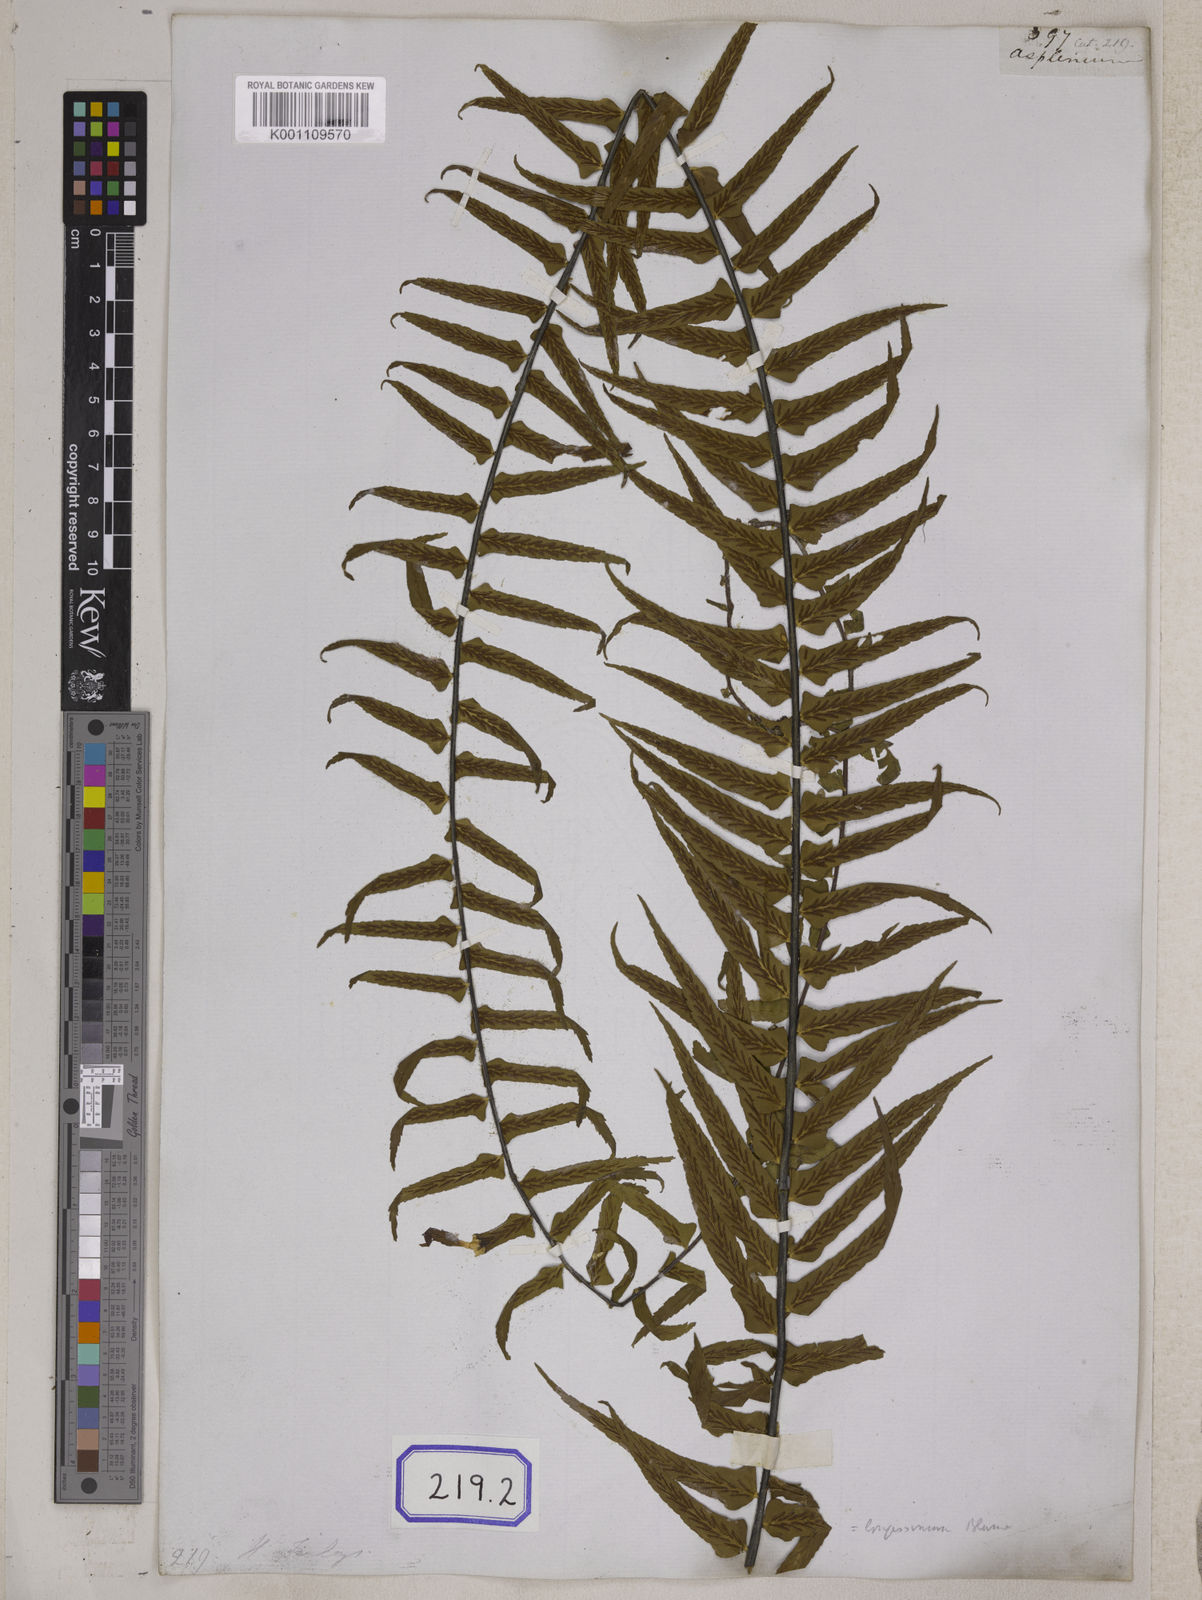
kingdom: Plantae
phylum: Tracheophyta
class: Polypodiopsida
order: Polypodiales
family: Aspleniaceae
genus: Asplenium
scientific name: Asplenium longissimum
